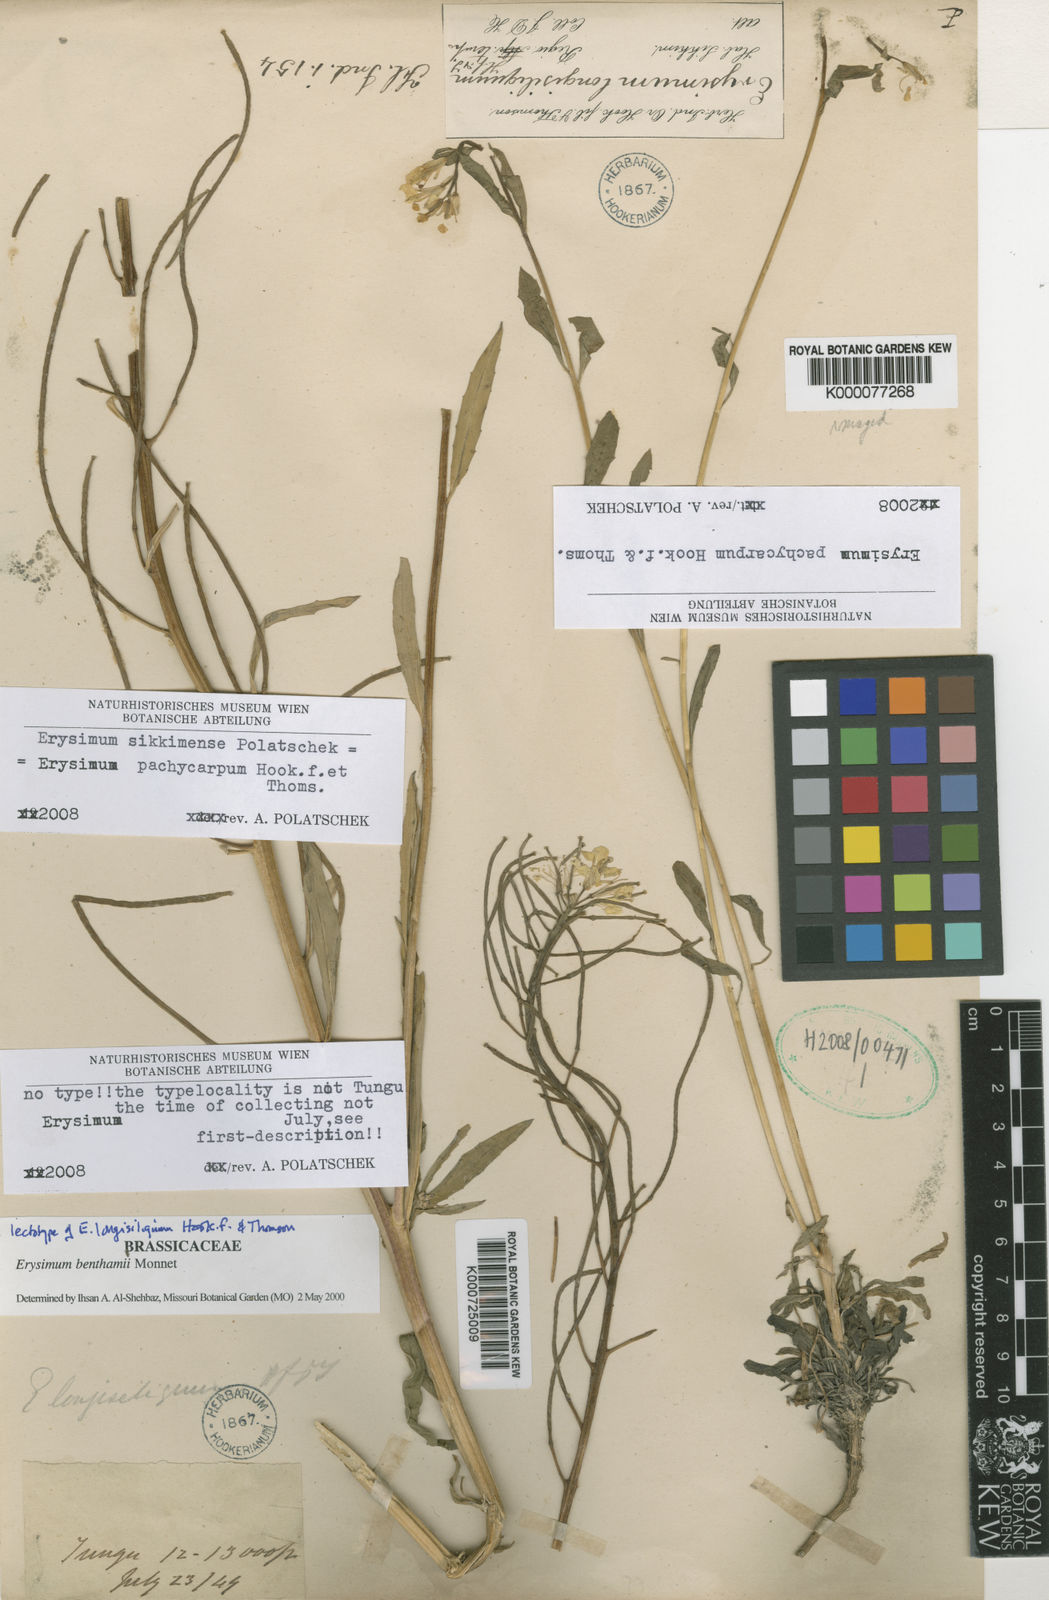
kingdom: Plantae
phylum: Tracheophyta
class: Magnoliopsida
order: Brassicales
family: Brassicaceae
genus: Erysimum
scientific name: Erysimum pachycarpum
